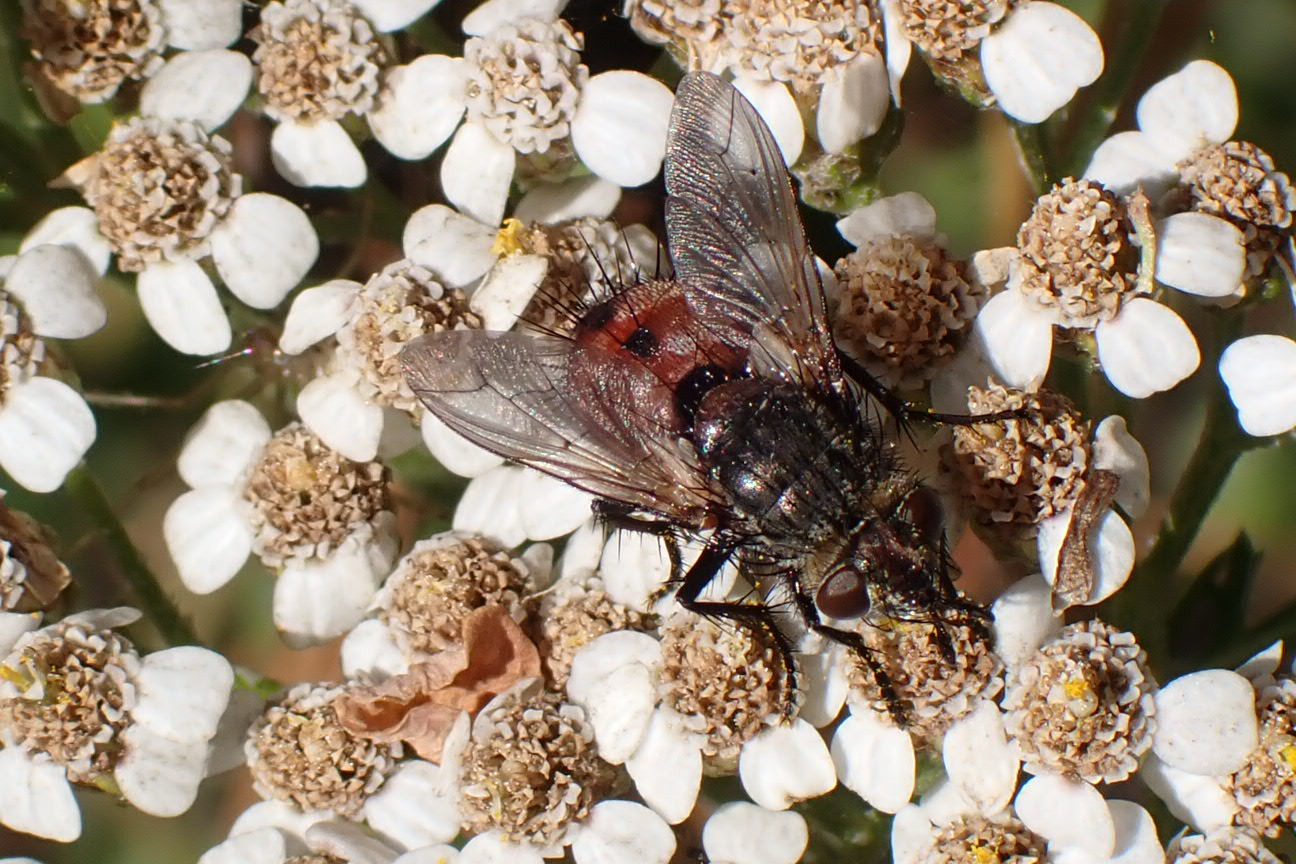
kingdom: Animalia
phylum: Arthropoda
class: Insecta
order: Diptera
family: Tachinidae
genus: Peleteria
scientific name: Peleteria rubescens
